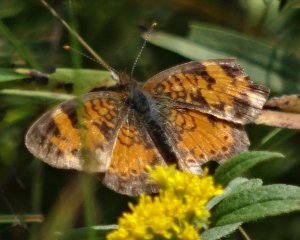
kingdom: Animalia
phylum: Arthropoda
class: Insecta
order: Lepidoptera
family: Nymphalidae
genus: Phyciodes
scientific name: Phyciodes tharos
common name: Northern Crescent
